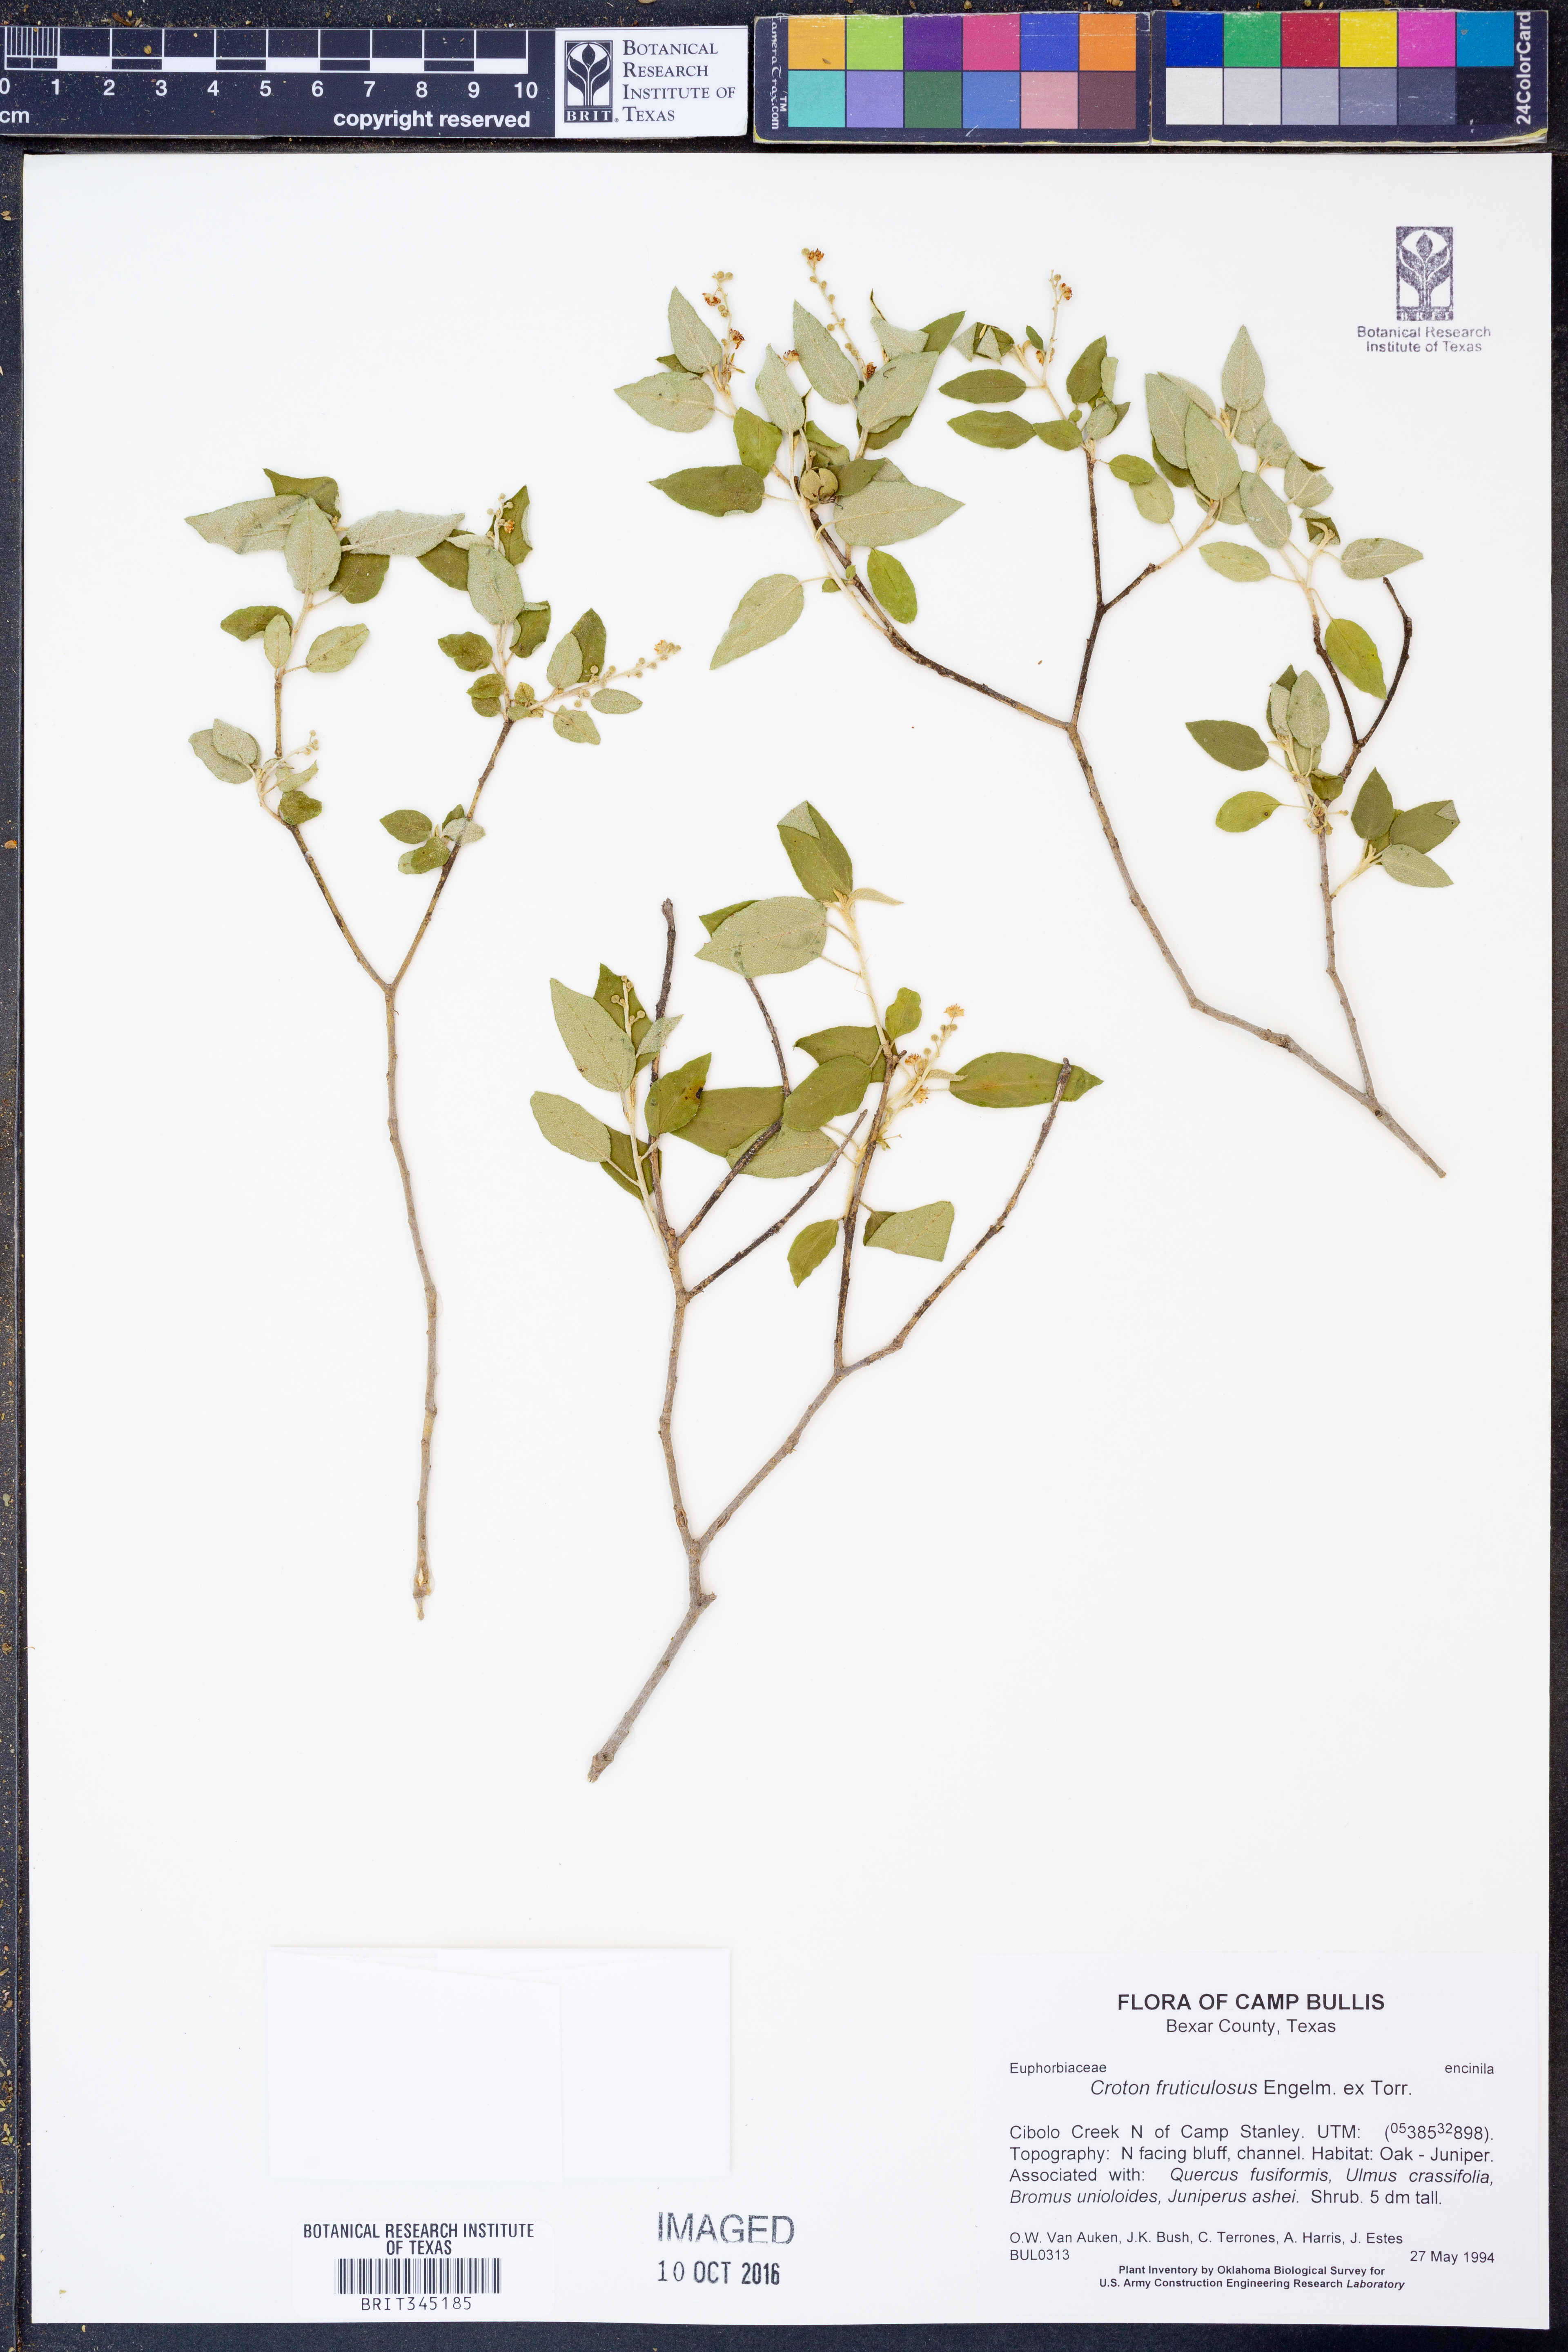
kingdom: Plantae
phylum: Tracheophyta
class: Magnoliopsida
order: Malpighiales
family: Euphorbiaceae
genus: Croton
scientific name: Croton fruticulosus
